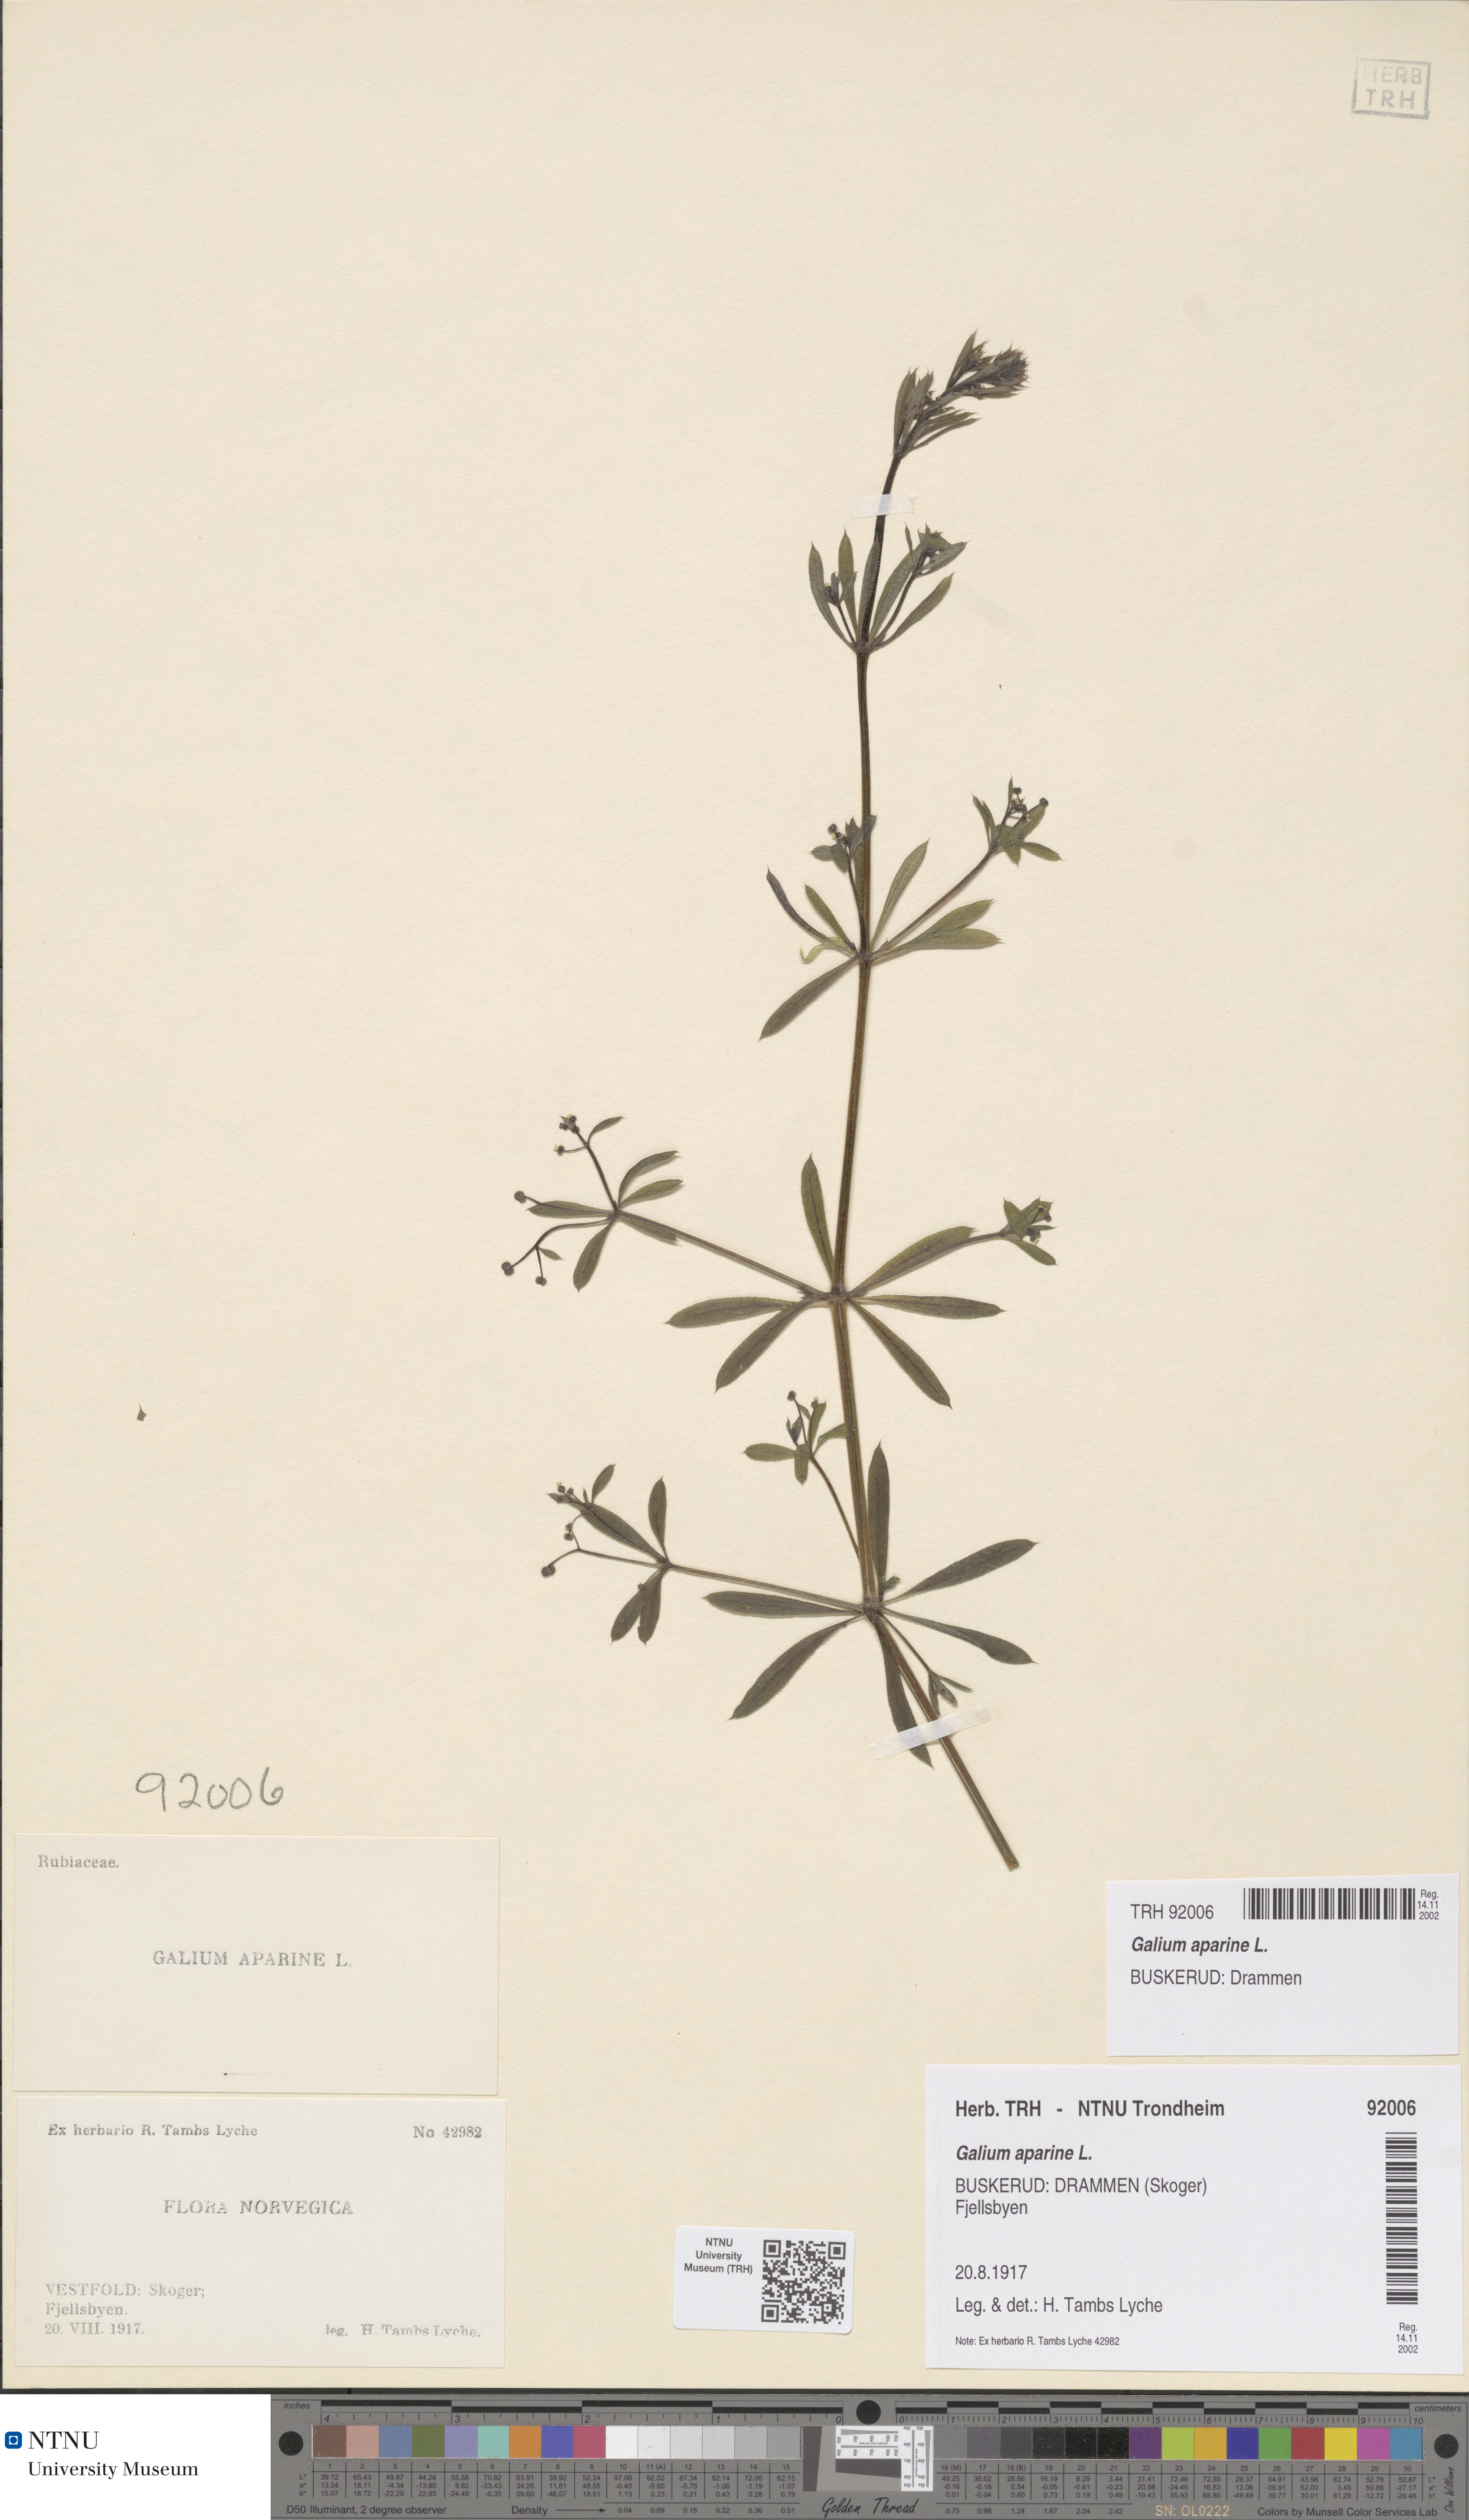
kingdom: Plantae
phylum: Tracheophyta
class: Magnoliopsida
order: Gentianales
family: Rubiaceae
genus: Galium
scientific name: Galium aparine
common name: Cleavers
